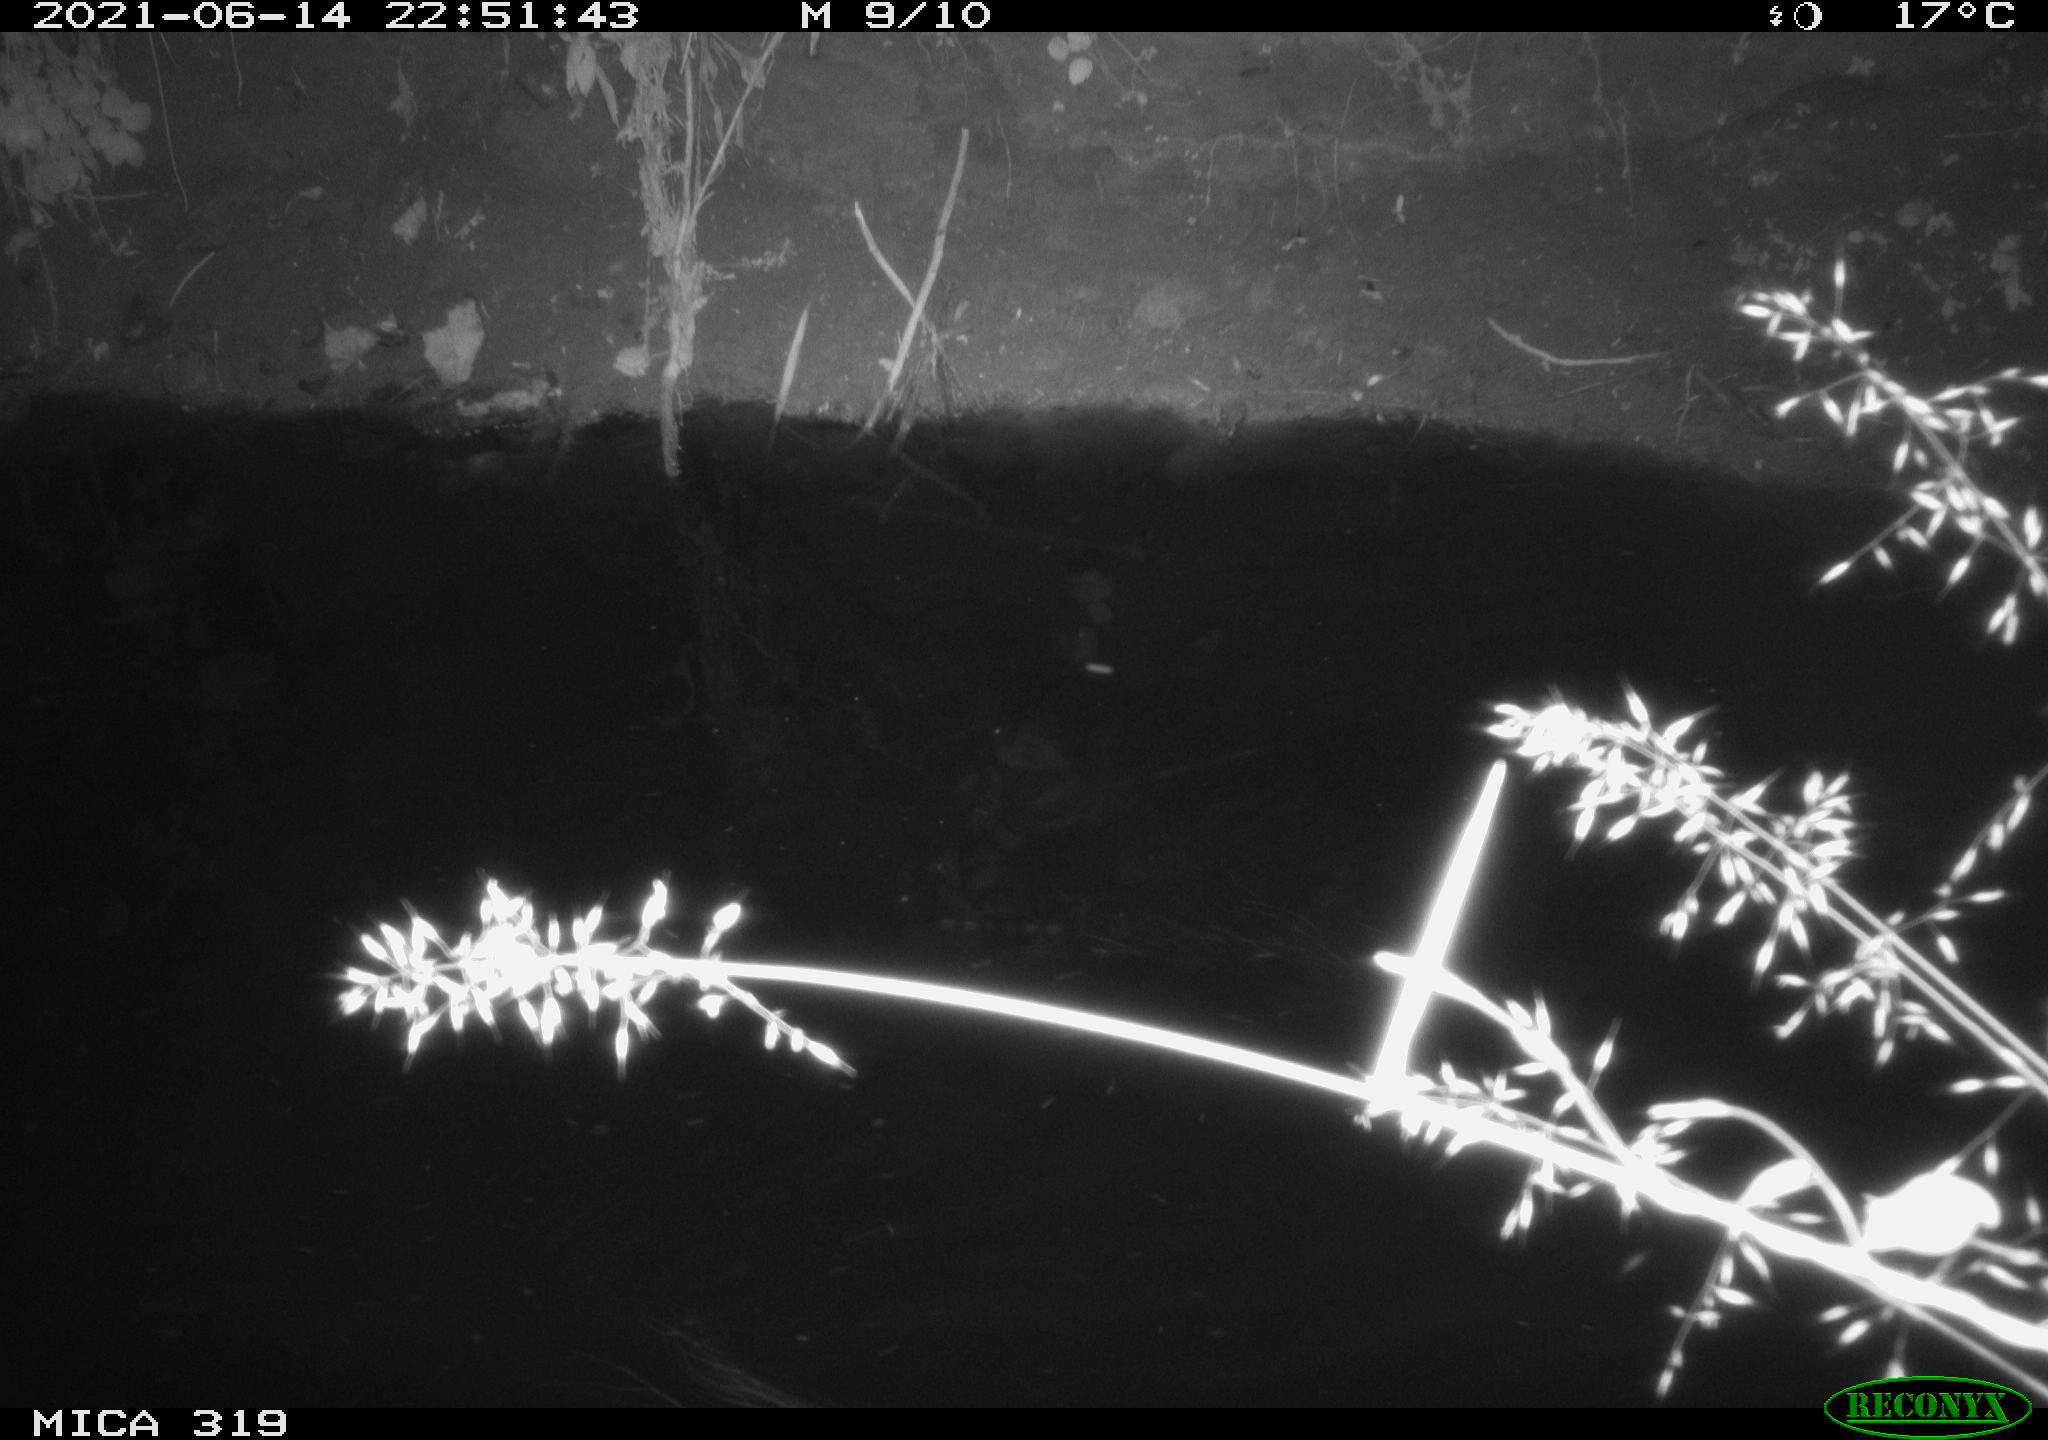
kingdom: Animalia
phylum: Chordata
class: Aves
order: Anseriformes
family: Anatidae
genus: Anas
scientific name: Anas platyrhynchos
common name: Mallard
